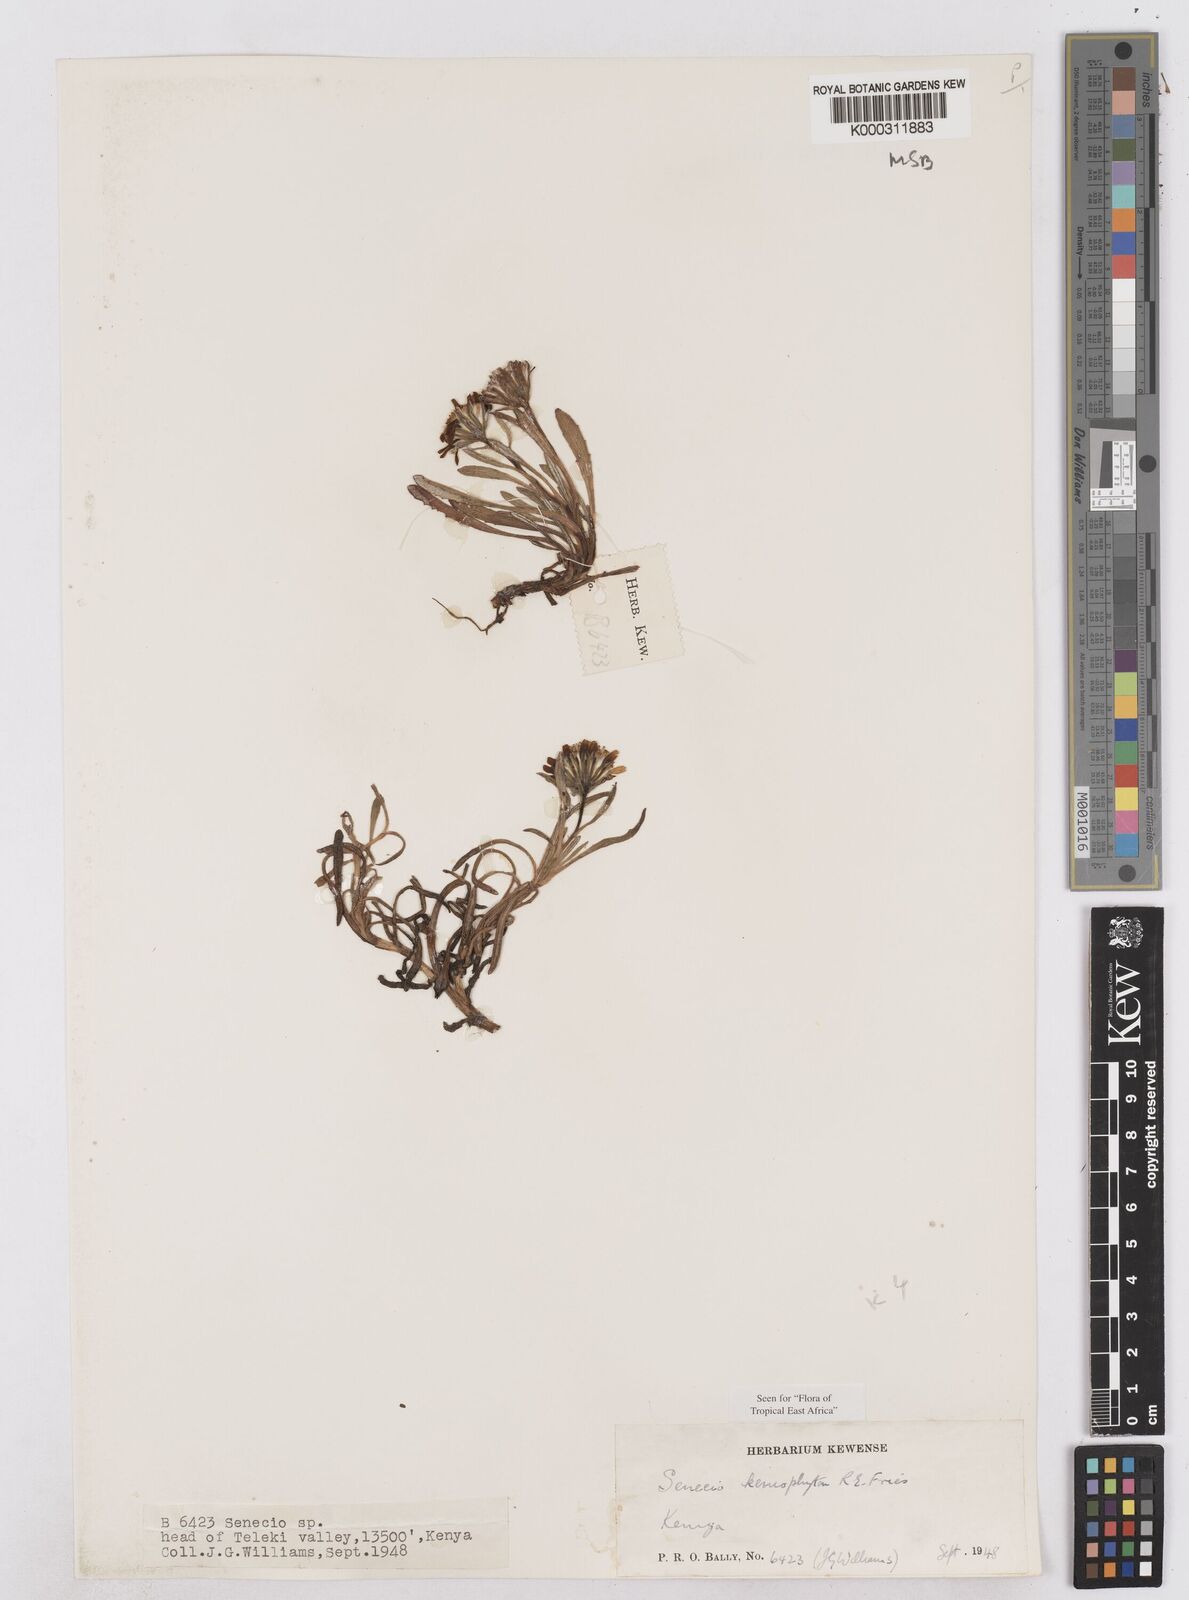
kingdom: Plantae
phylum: Tracheophyta
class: Magnoliopsida
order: Asterales
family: Asteraceae
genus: Senecio
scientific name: Senecio keniophytum
